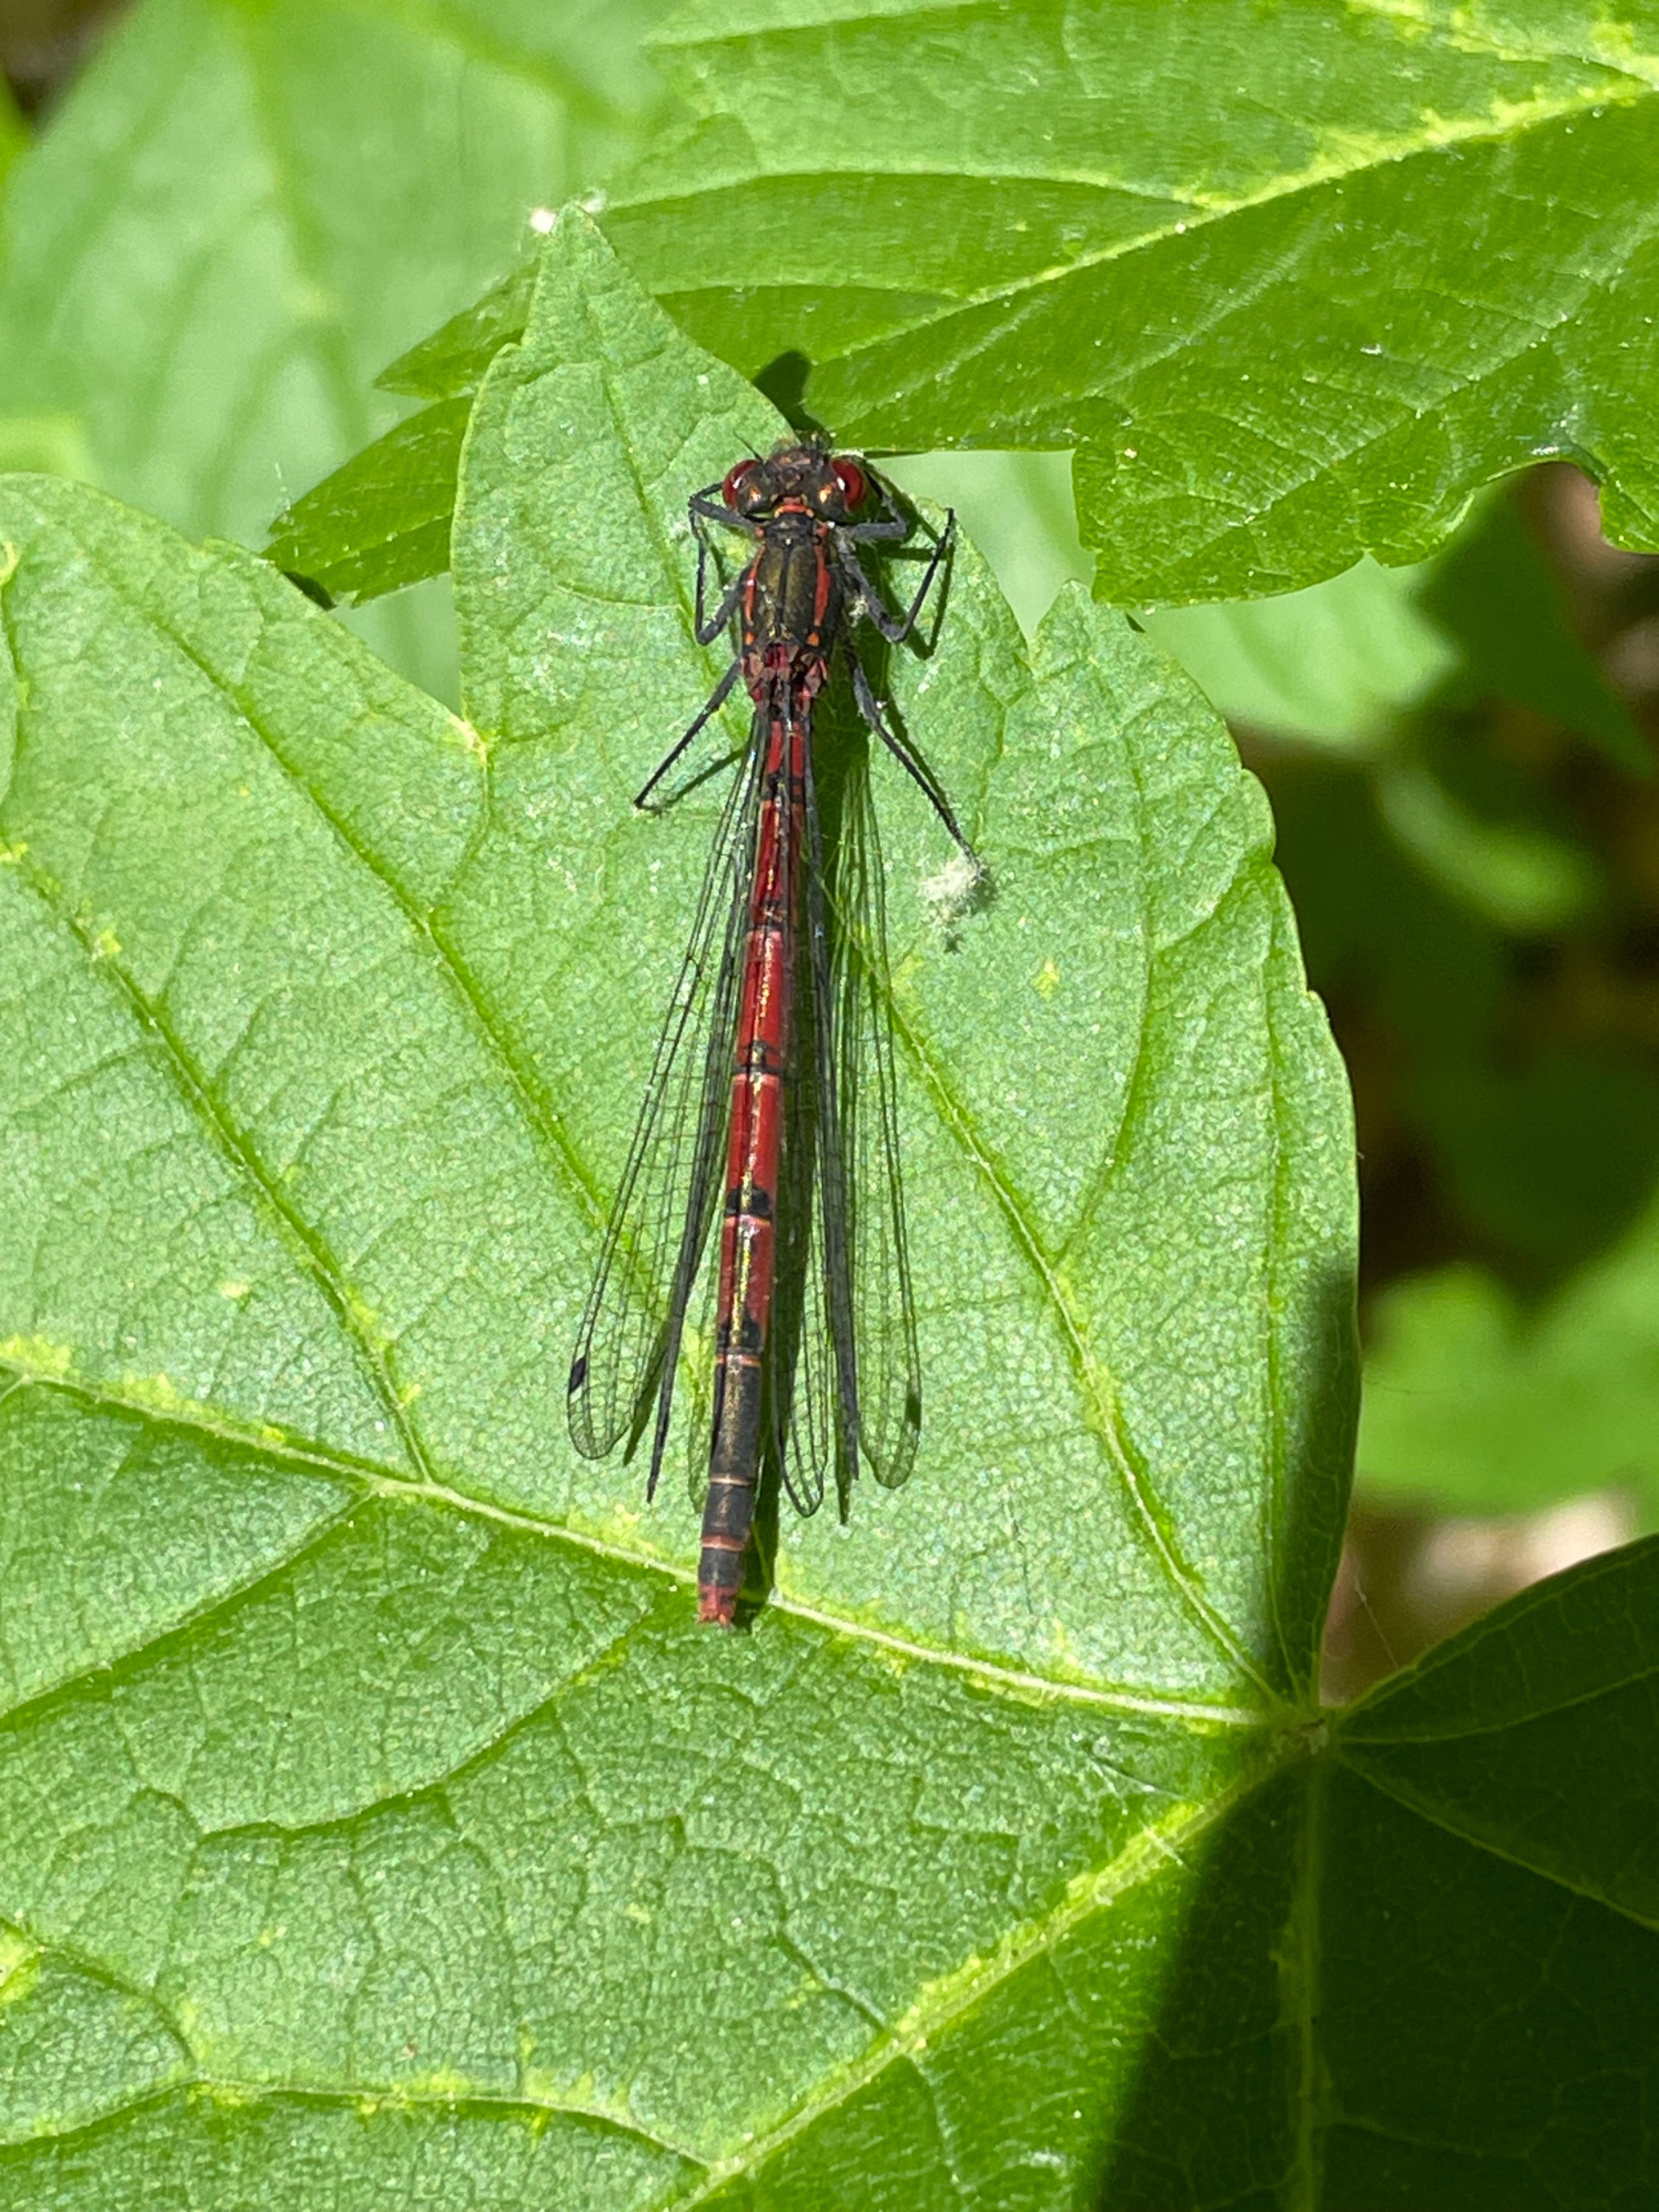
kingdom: Animalia
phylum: Arthropoda
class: Insecta
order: Odonata
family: Coenagrionidae
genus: Pyrrhosoma
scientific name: Pyrrhosoma nymphula
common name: Rød vandnymfe
